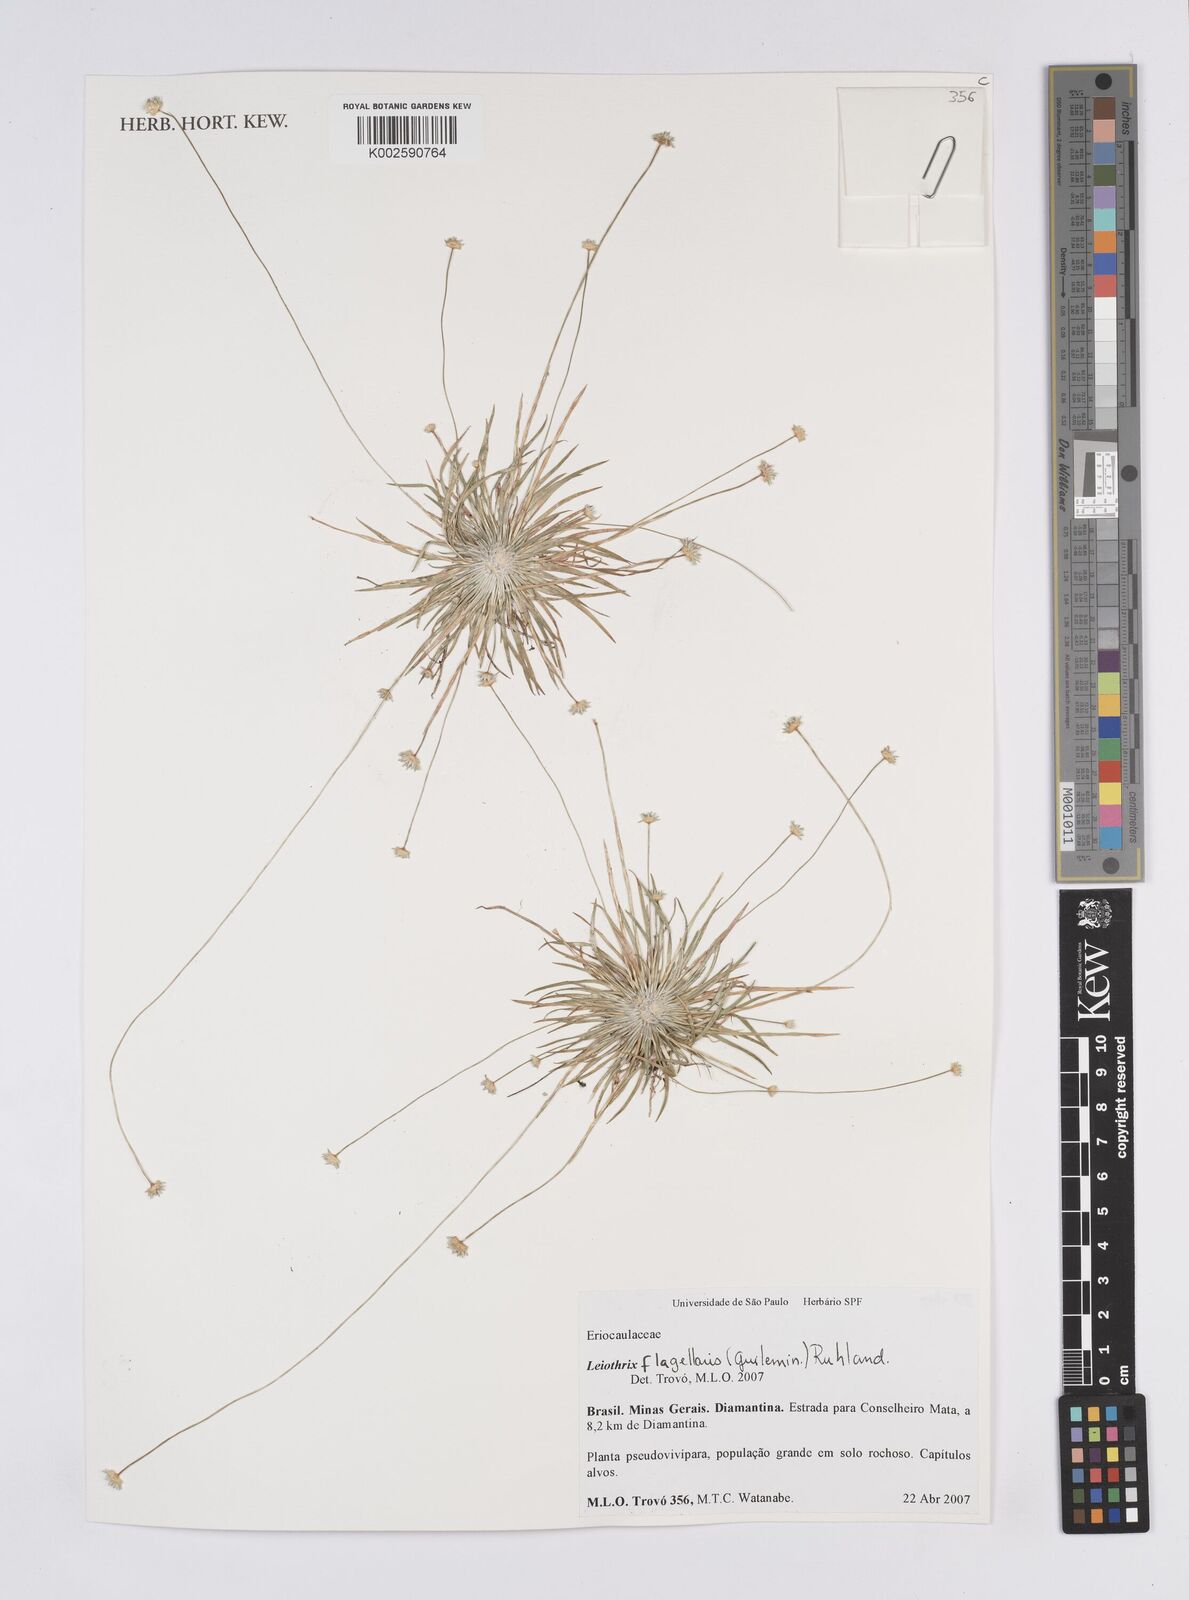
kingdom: Plantae
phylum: Tracheophyta
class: Liliopsida
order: Poales
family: Eriocaulaceae
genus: Leiothrix
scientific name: Leiothrix flagellaris
